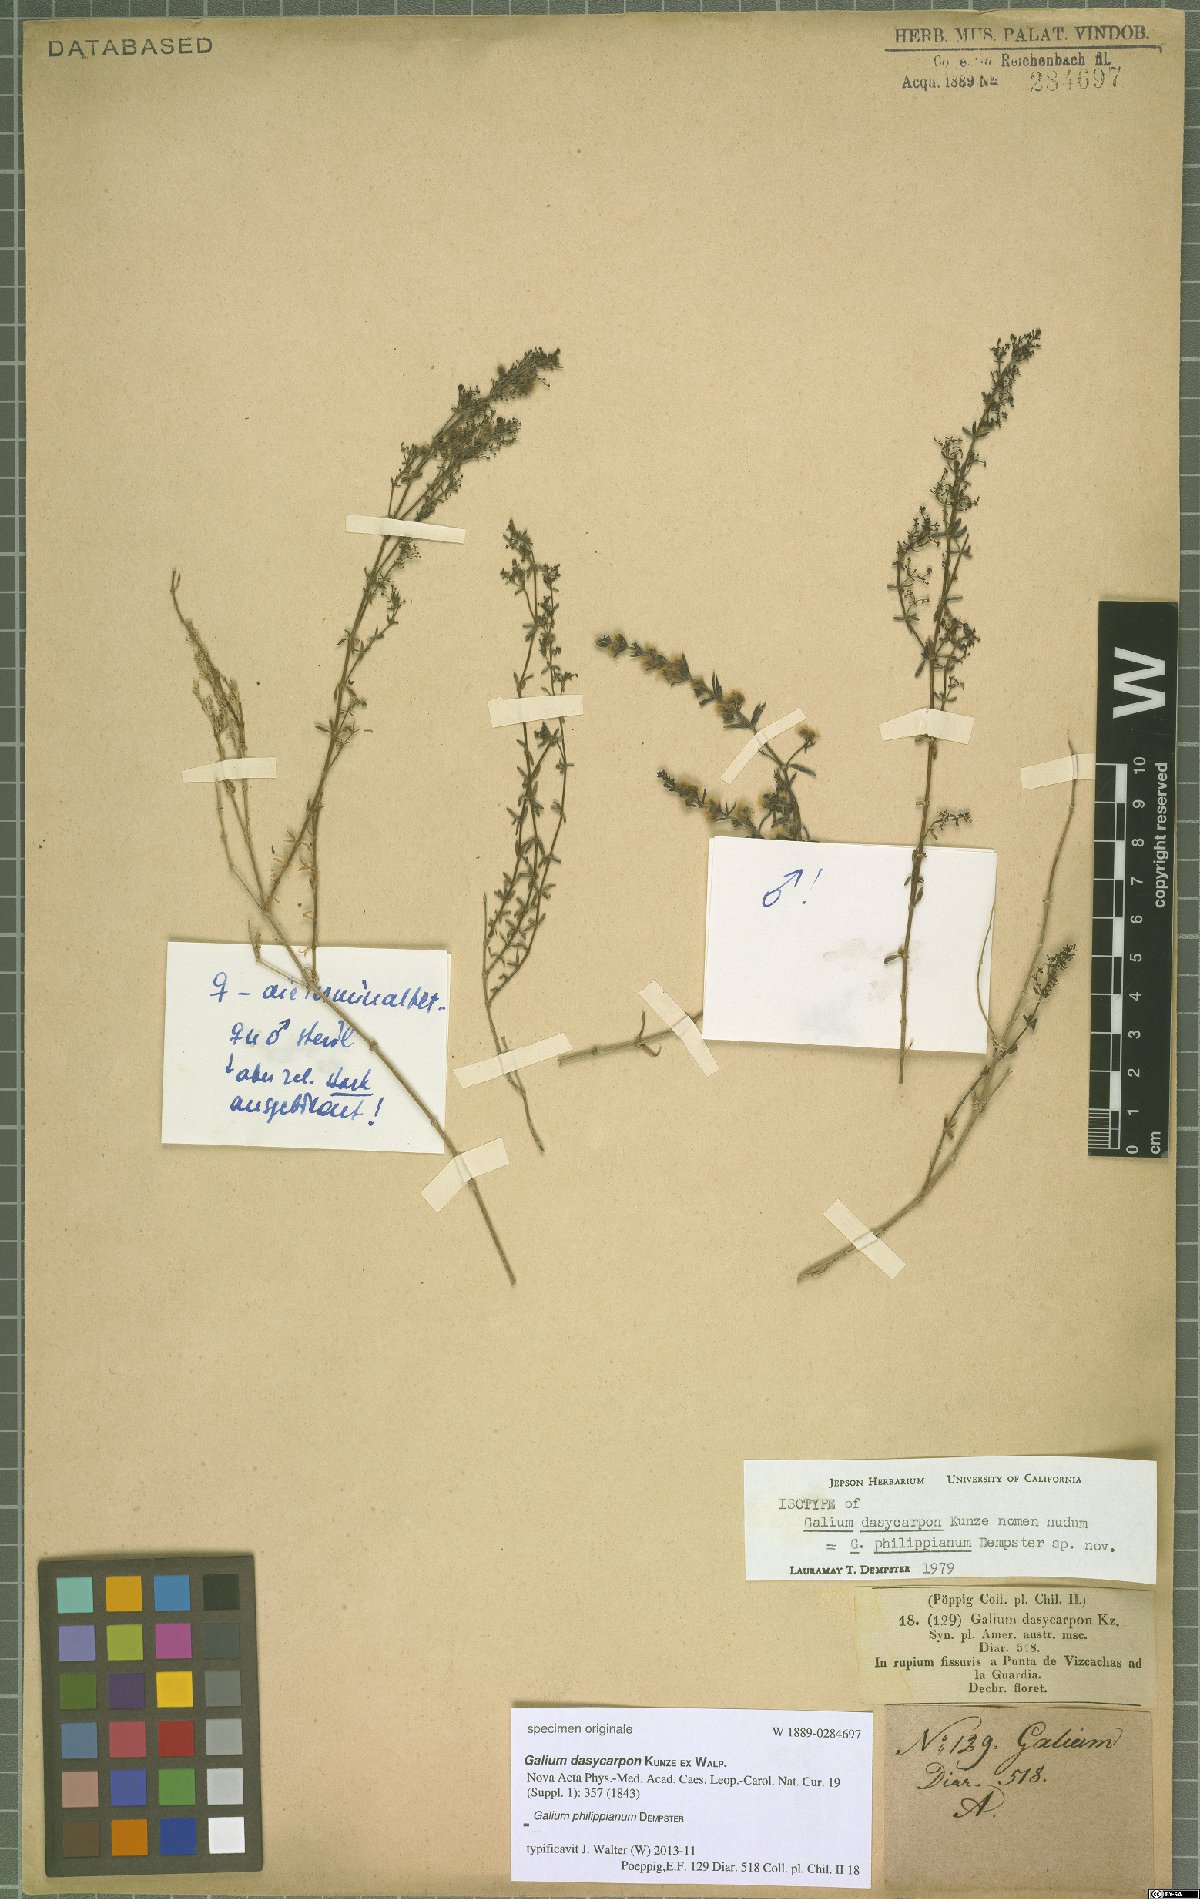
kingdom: Plantae
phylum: Tracheophyta
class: Magnoliopsida
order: Gentianales
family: Rubiaceae
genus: Galium
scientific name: Galium philippianum
